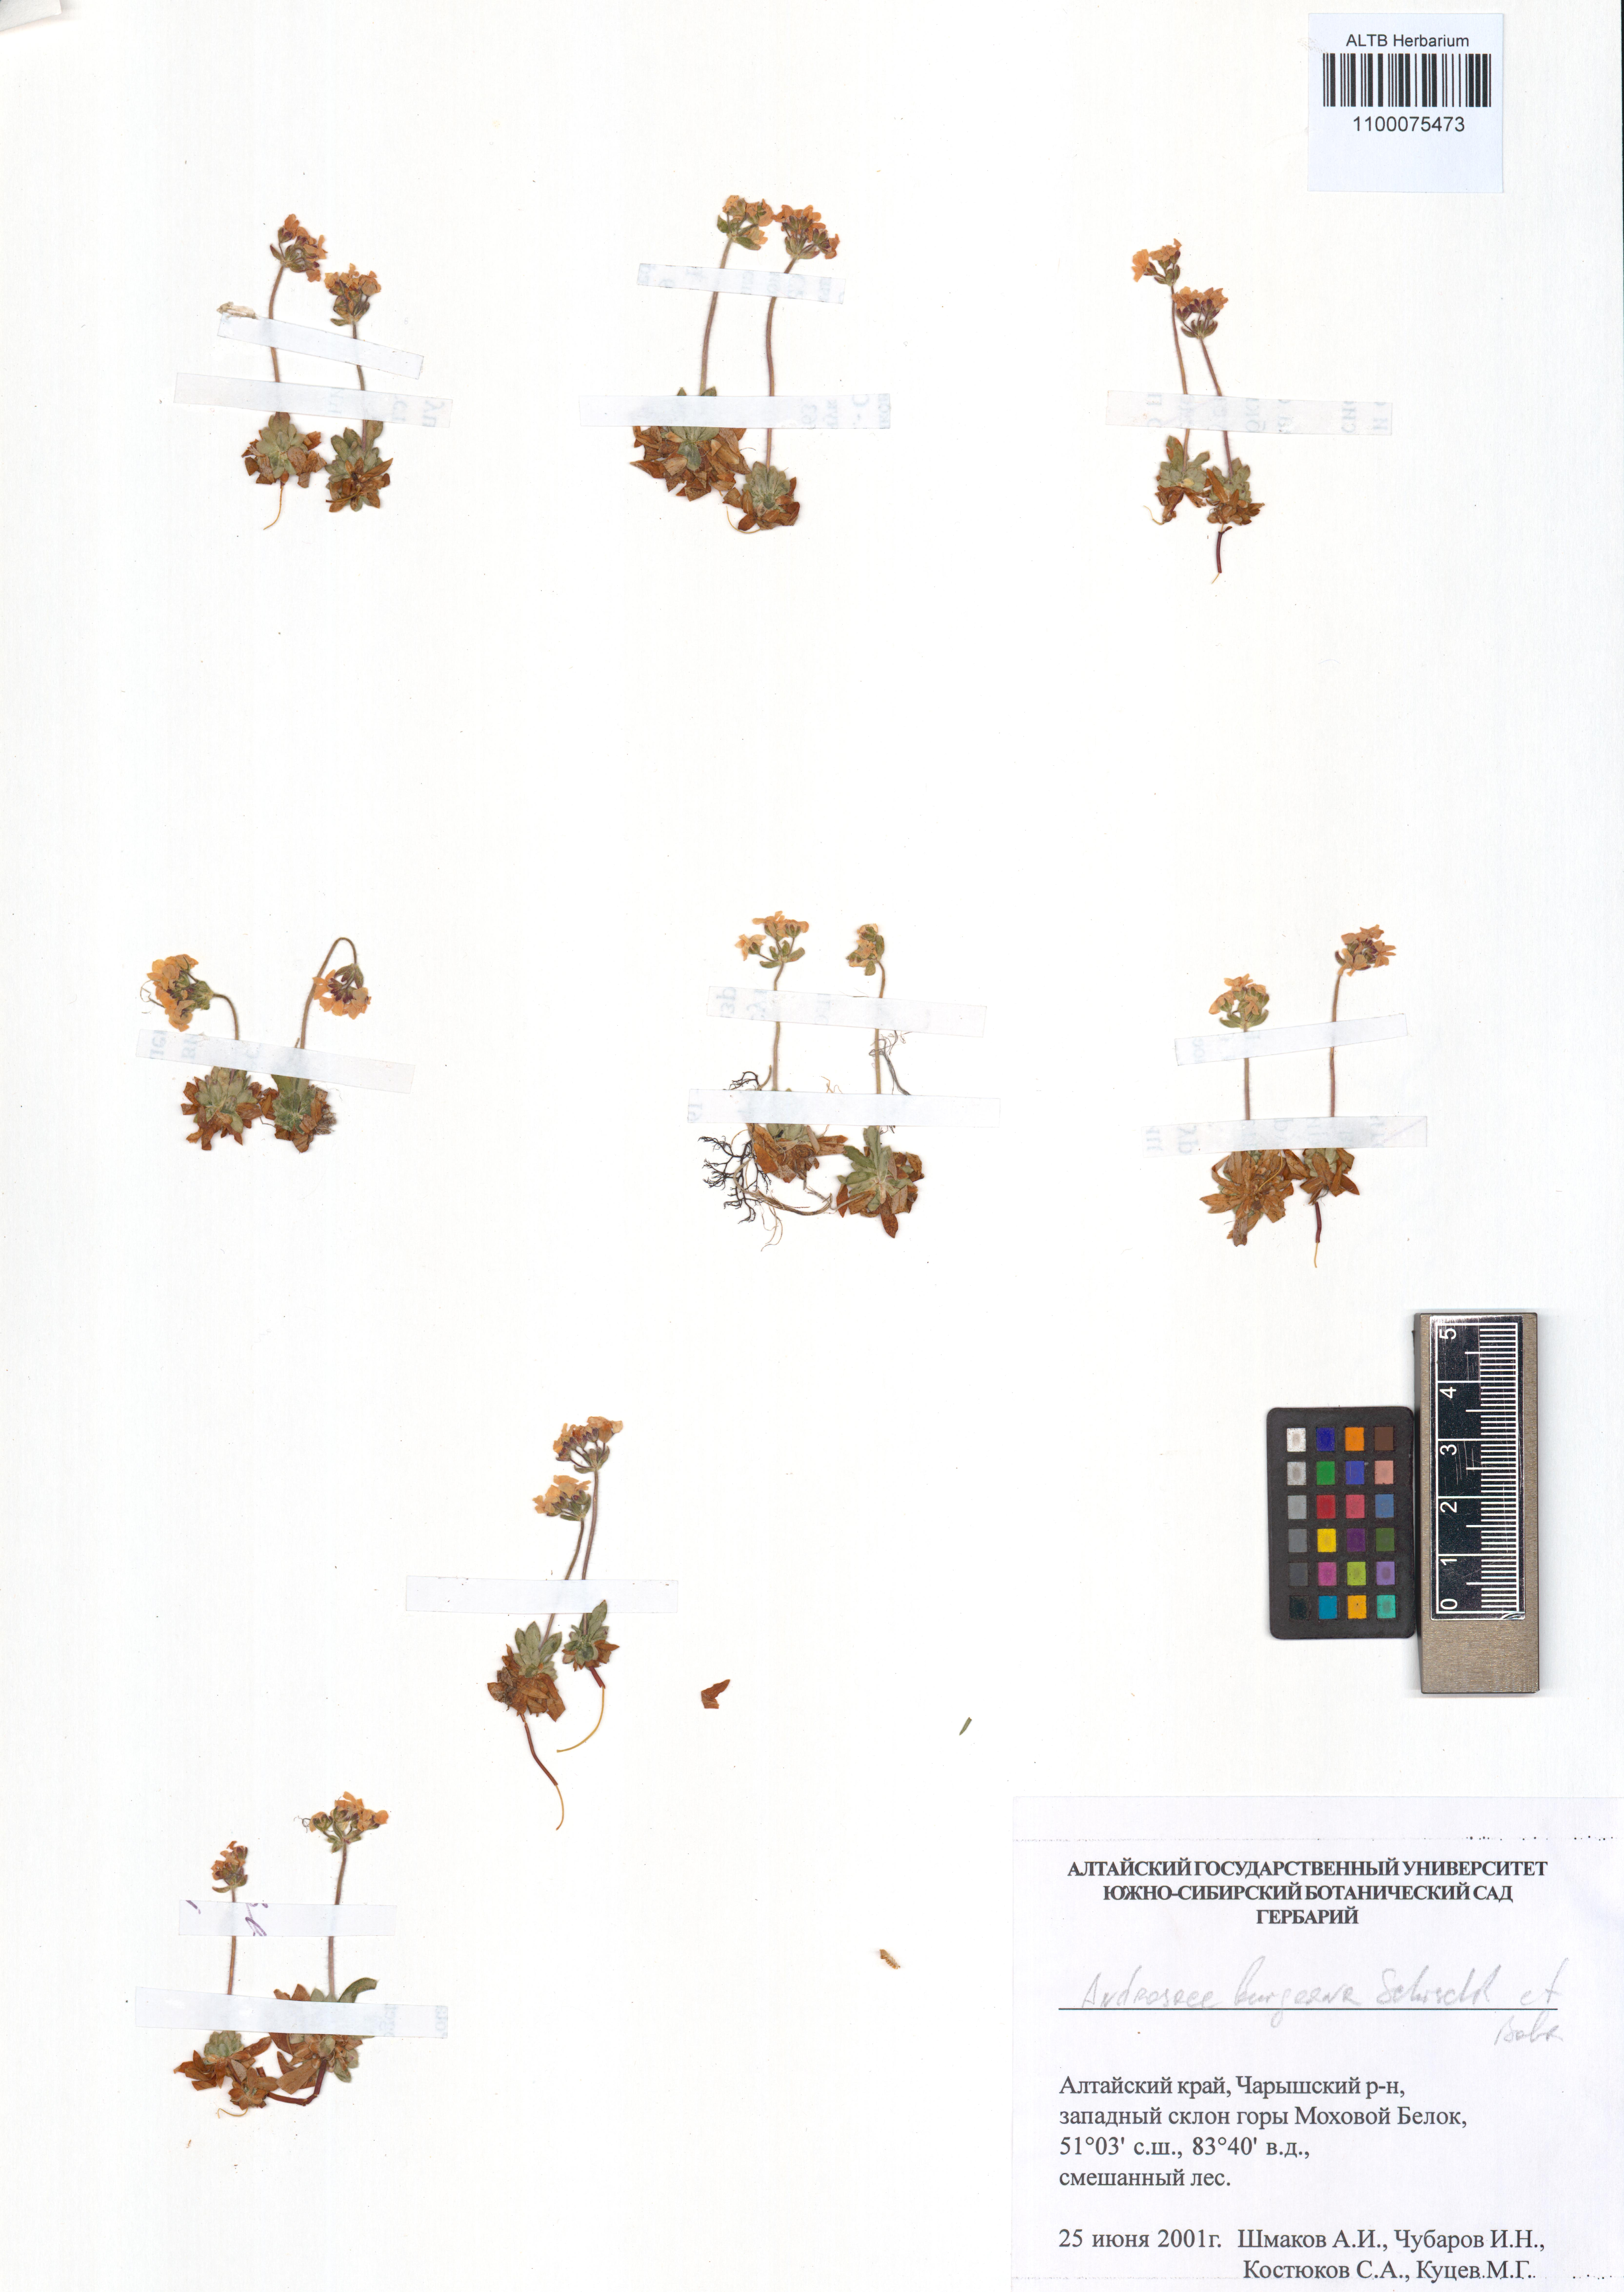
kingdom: Plantae
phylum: Tracheophyta
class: Magnoliopsida
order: Ericales
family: Primulaceae
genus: Androsace
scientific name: Androsace bungeana
